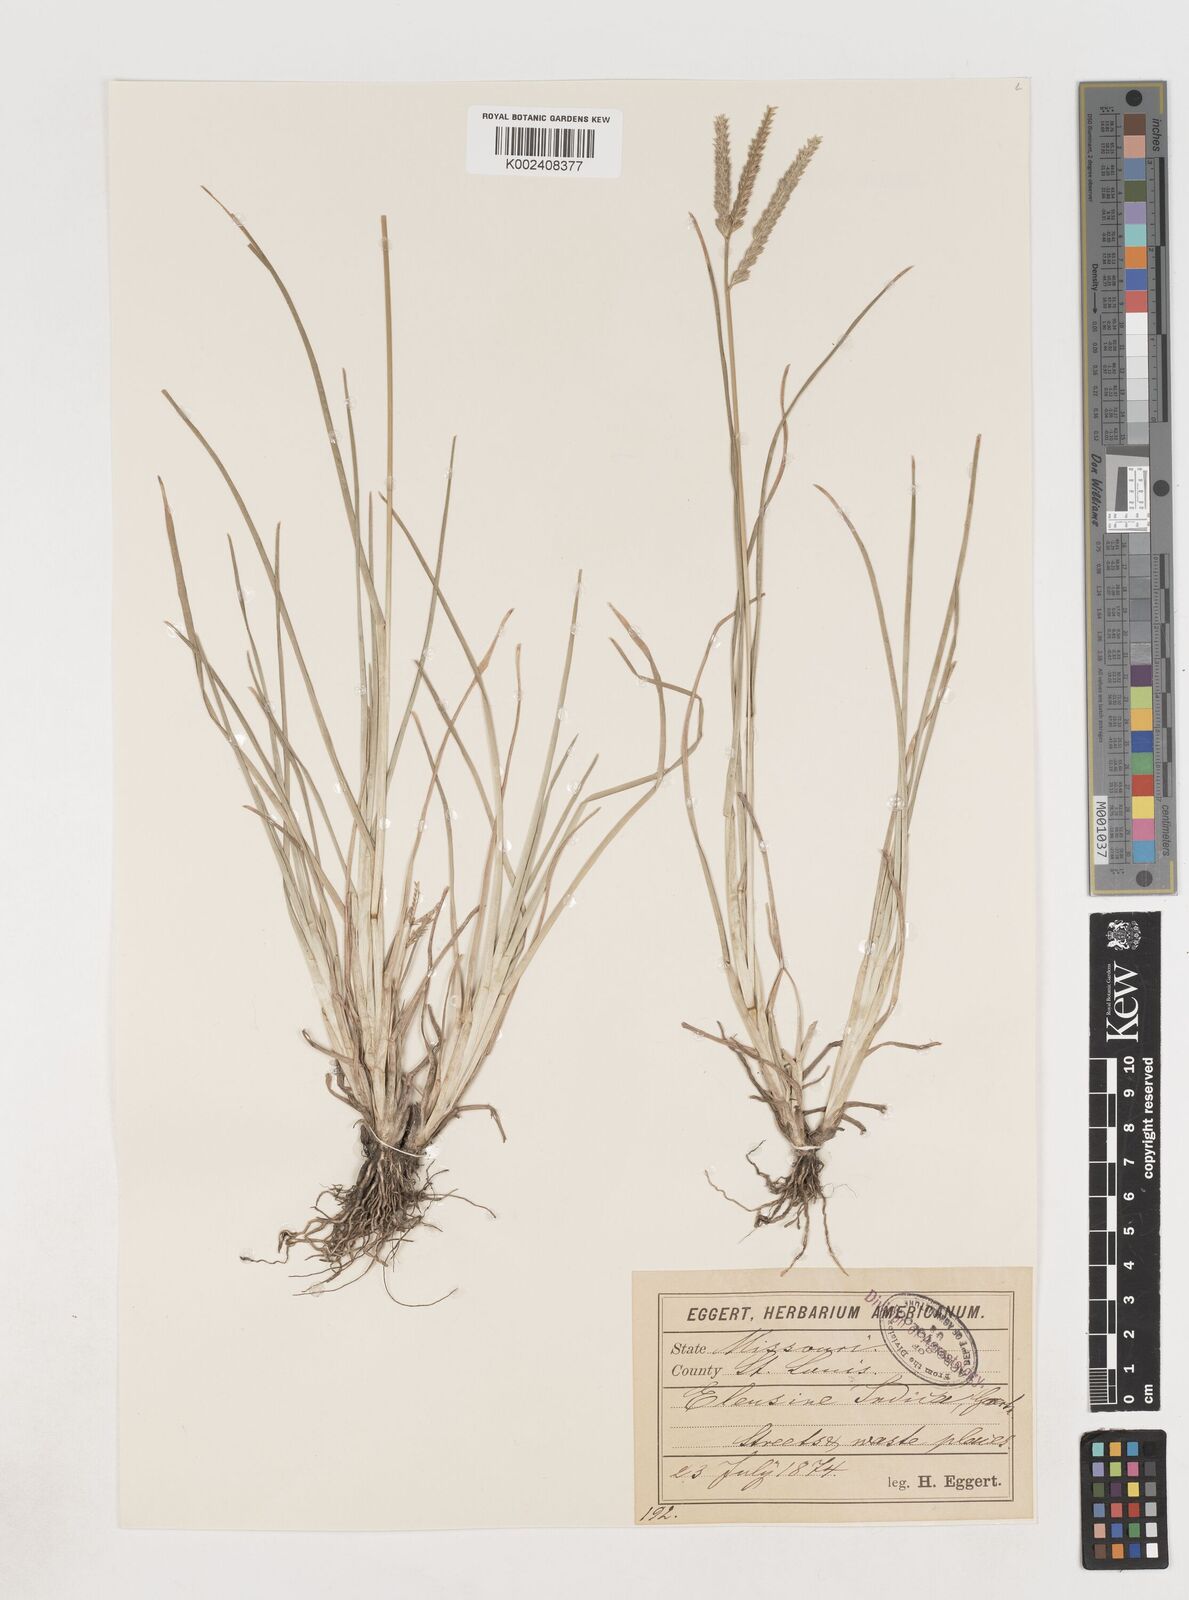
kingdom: Plantae
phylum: Tracheophyta
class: Liliopsida
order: Poales
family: Poaceae
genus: Eleusine
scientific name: Eleusine indica
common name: Yard-grass
